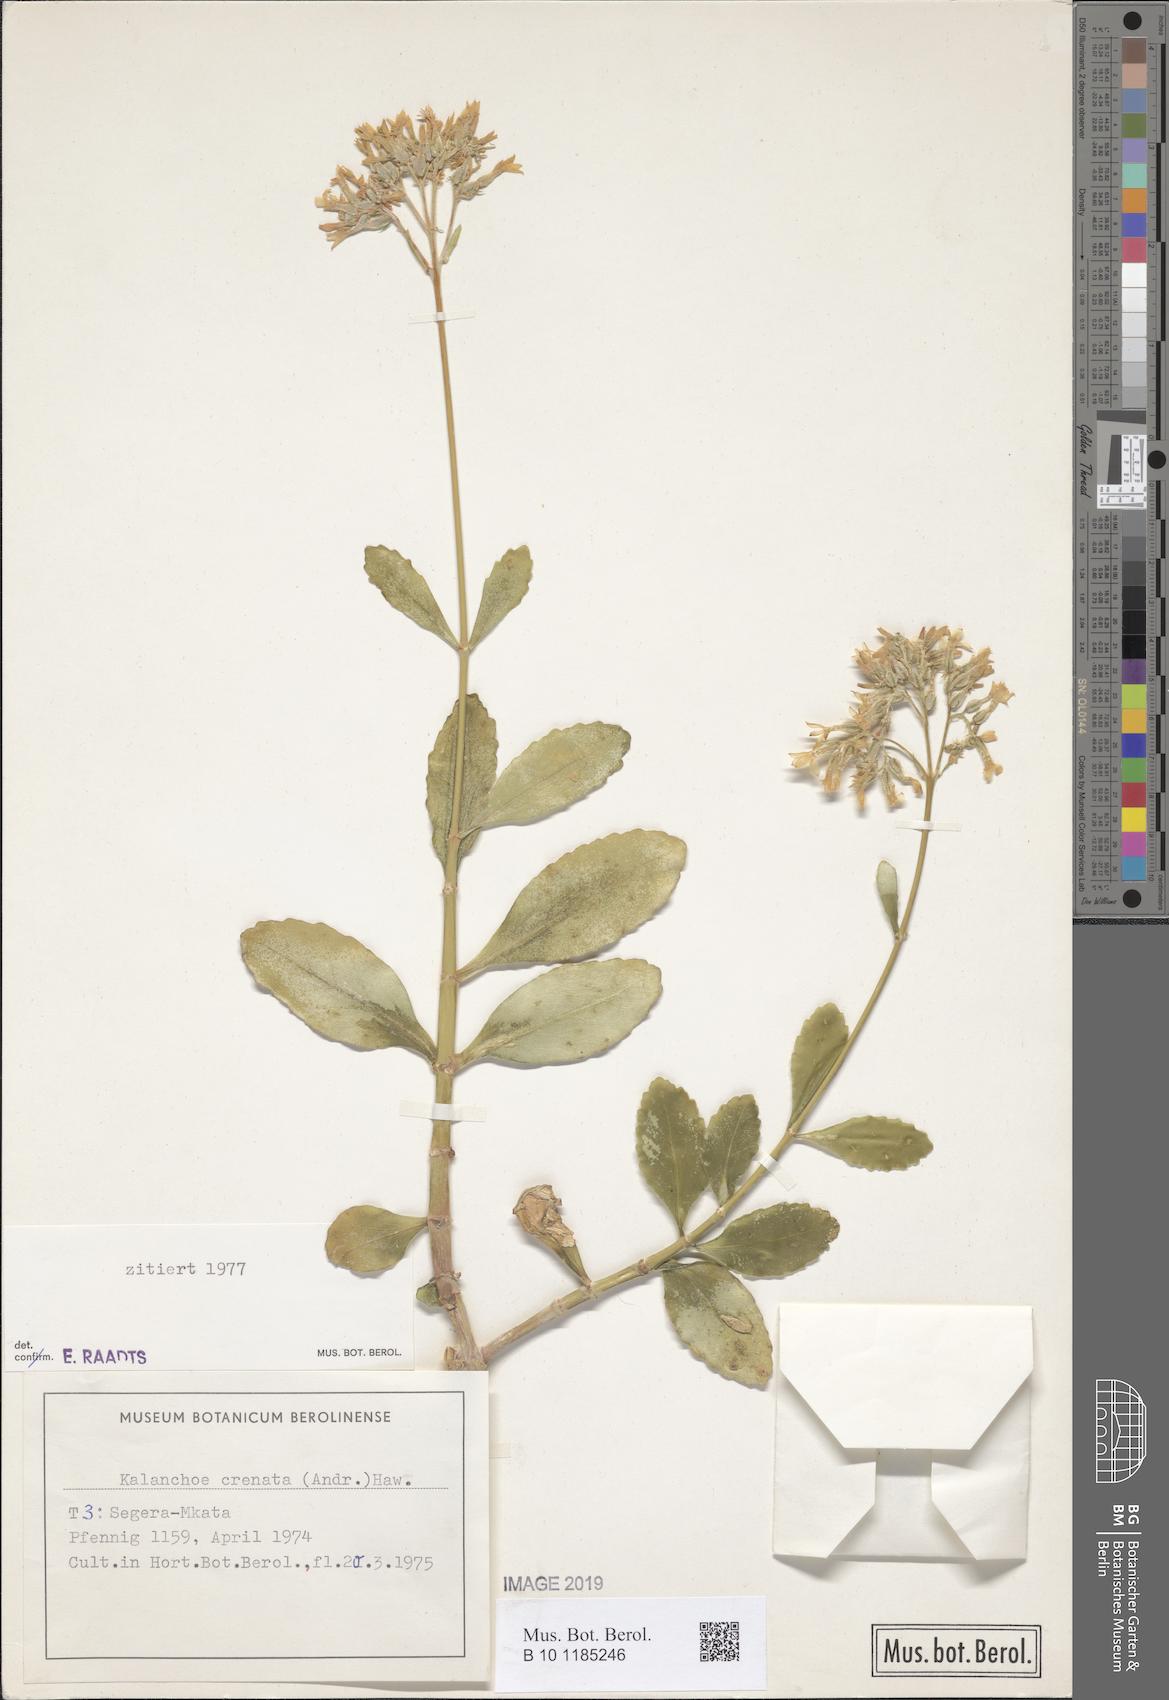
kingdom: Plantae
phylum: Tracheophyta
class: Magnoliopsida
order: Saxifragales
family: Crassulaceae
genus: Kalanchoe
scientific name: Kalanchoe crenata
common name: Neverdie
